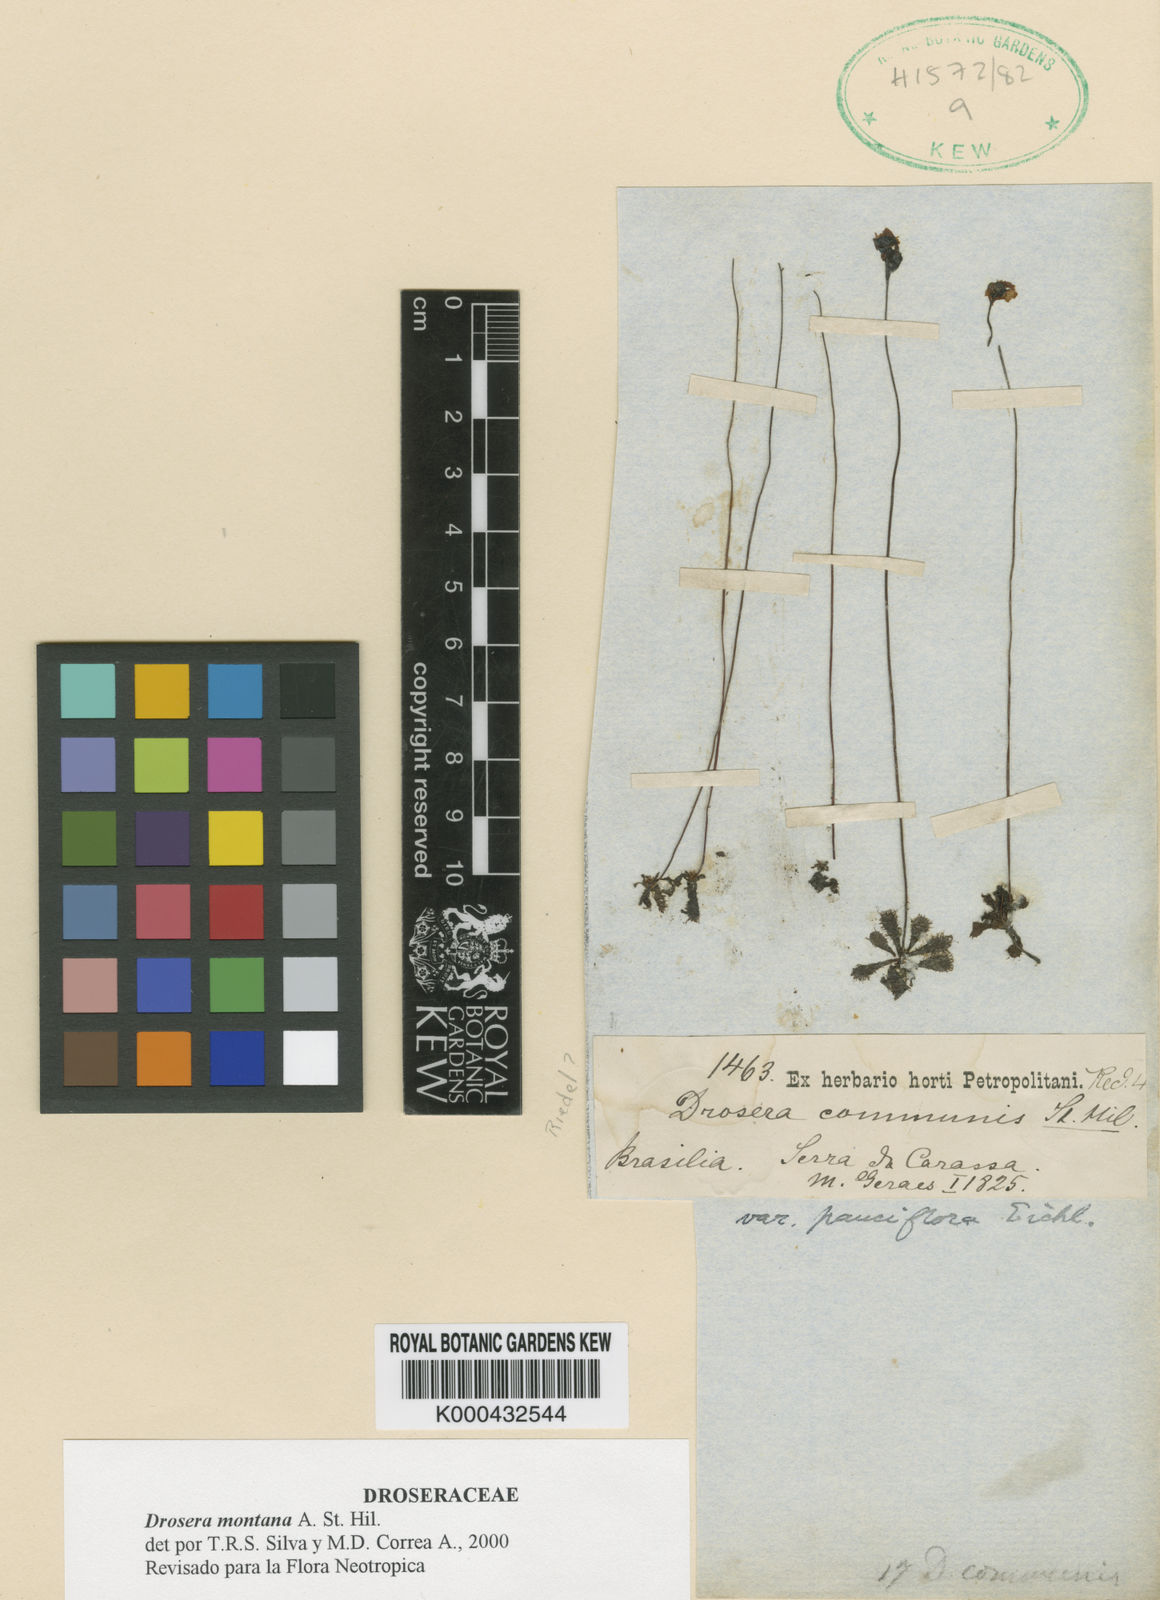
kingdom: Plantae
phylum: Tracheophyta
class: Magnoliopsida
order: Caryophyllales
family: Droseraceae
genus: Drosera
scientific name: Drosera communis
